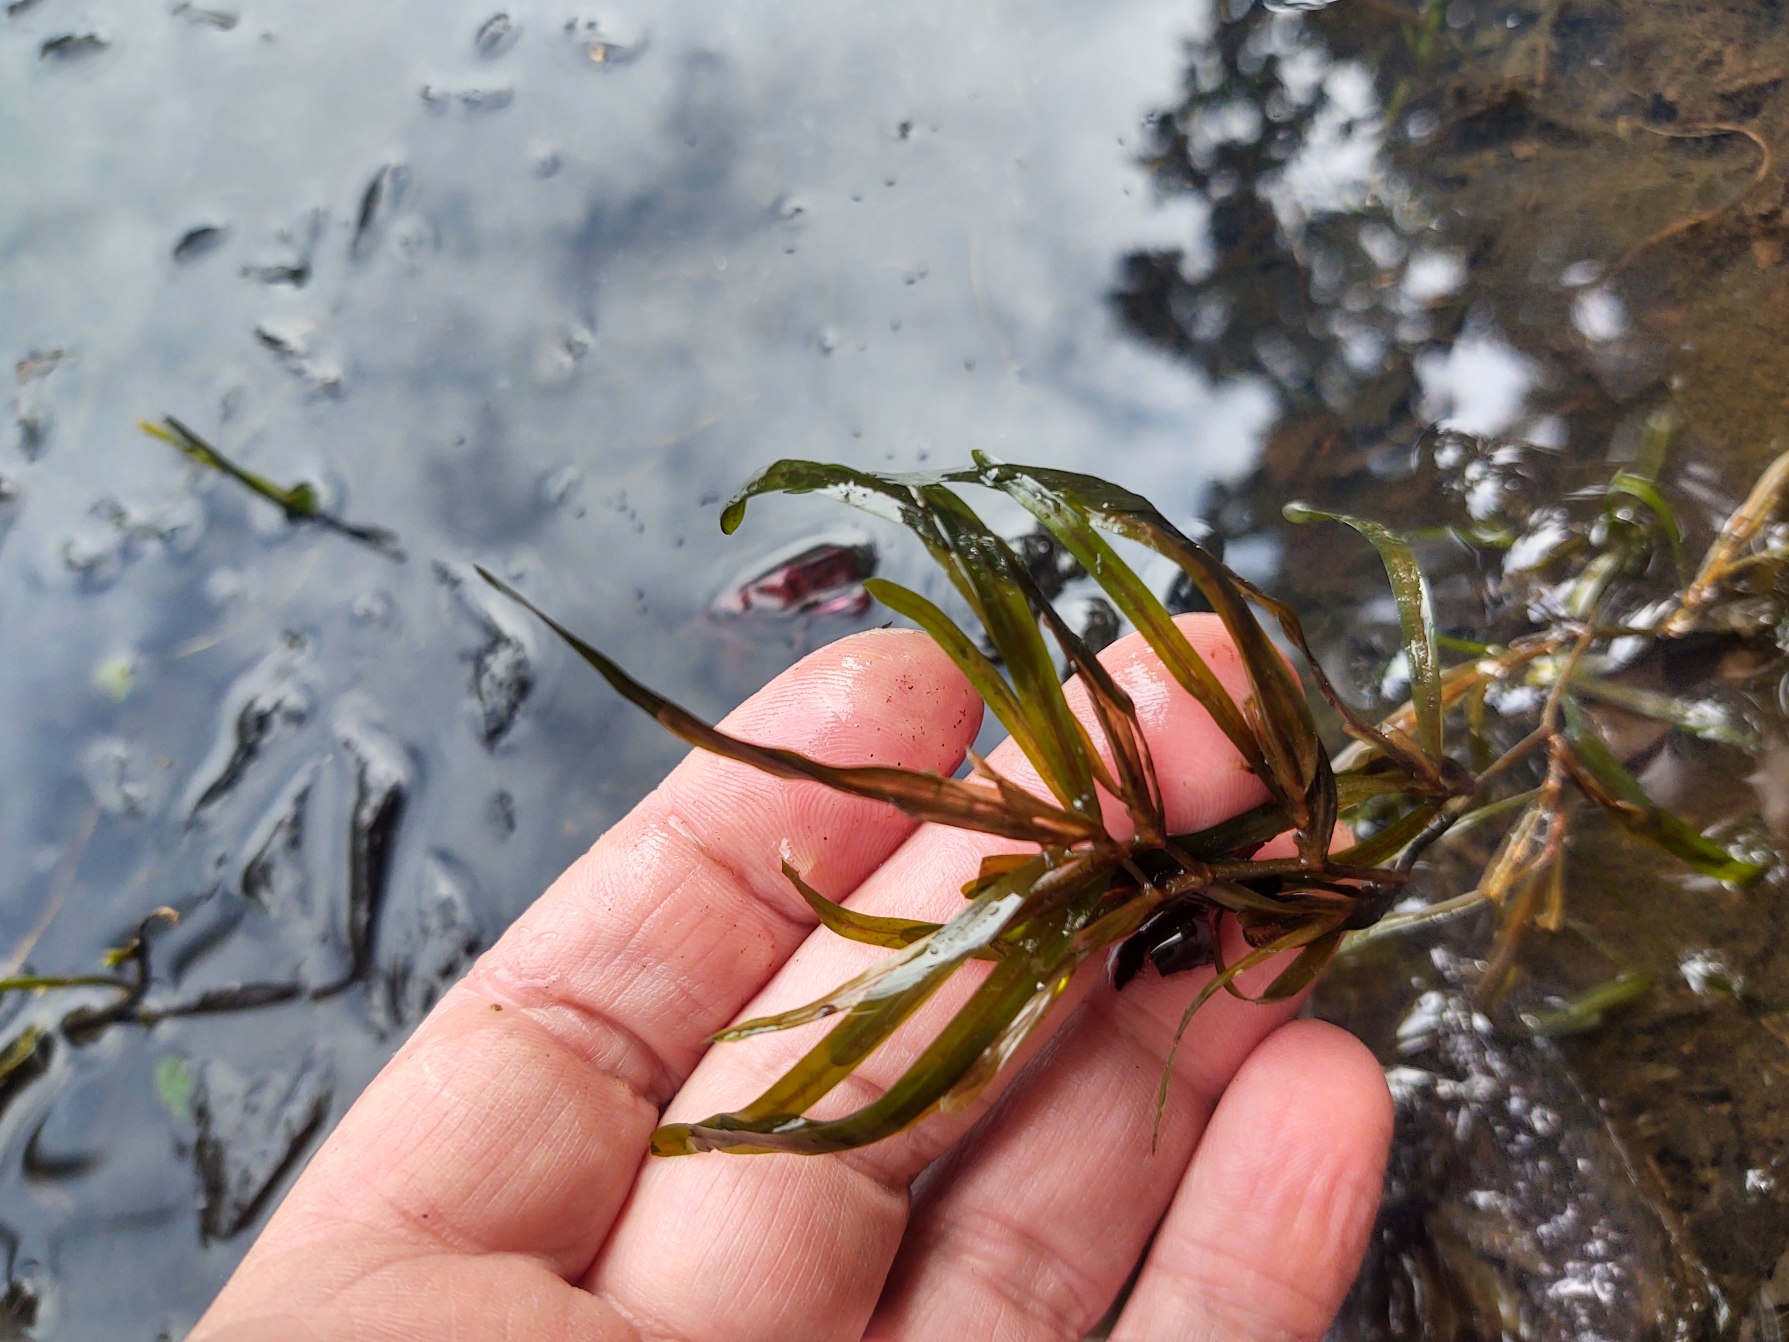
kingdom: Plantae
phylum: Tracheophyta
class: Liliopsida
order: Alismatales
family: Potamogetonaceae
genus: Potamogeton
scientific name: Potamogeton obtusifolius
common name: Butbladet vandaks
